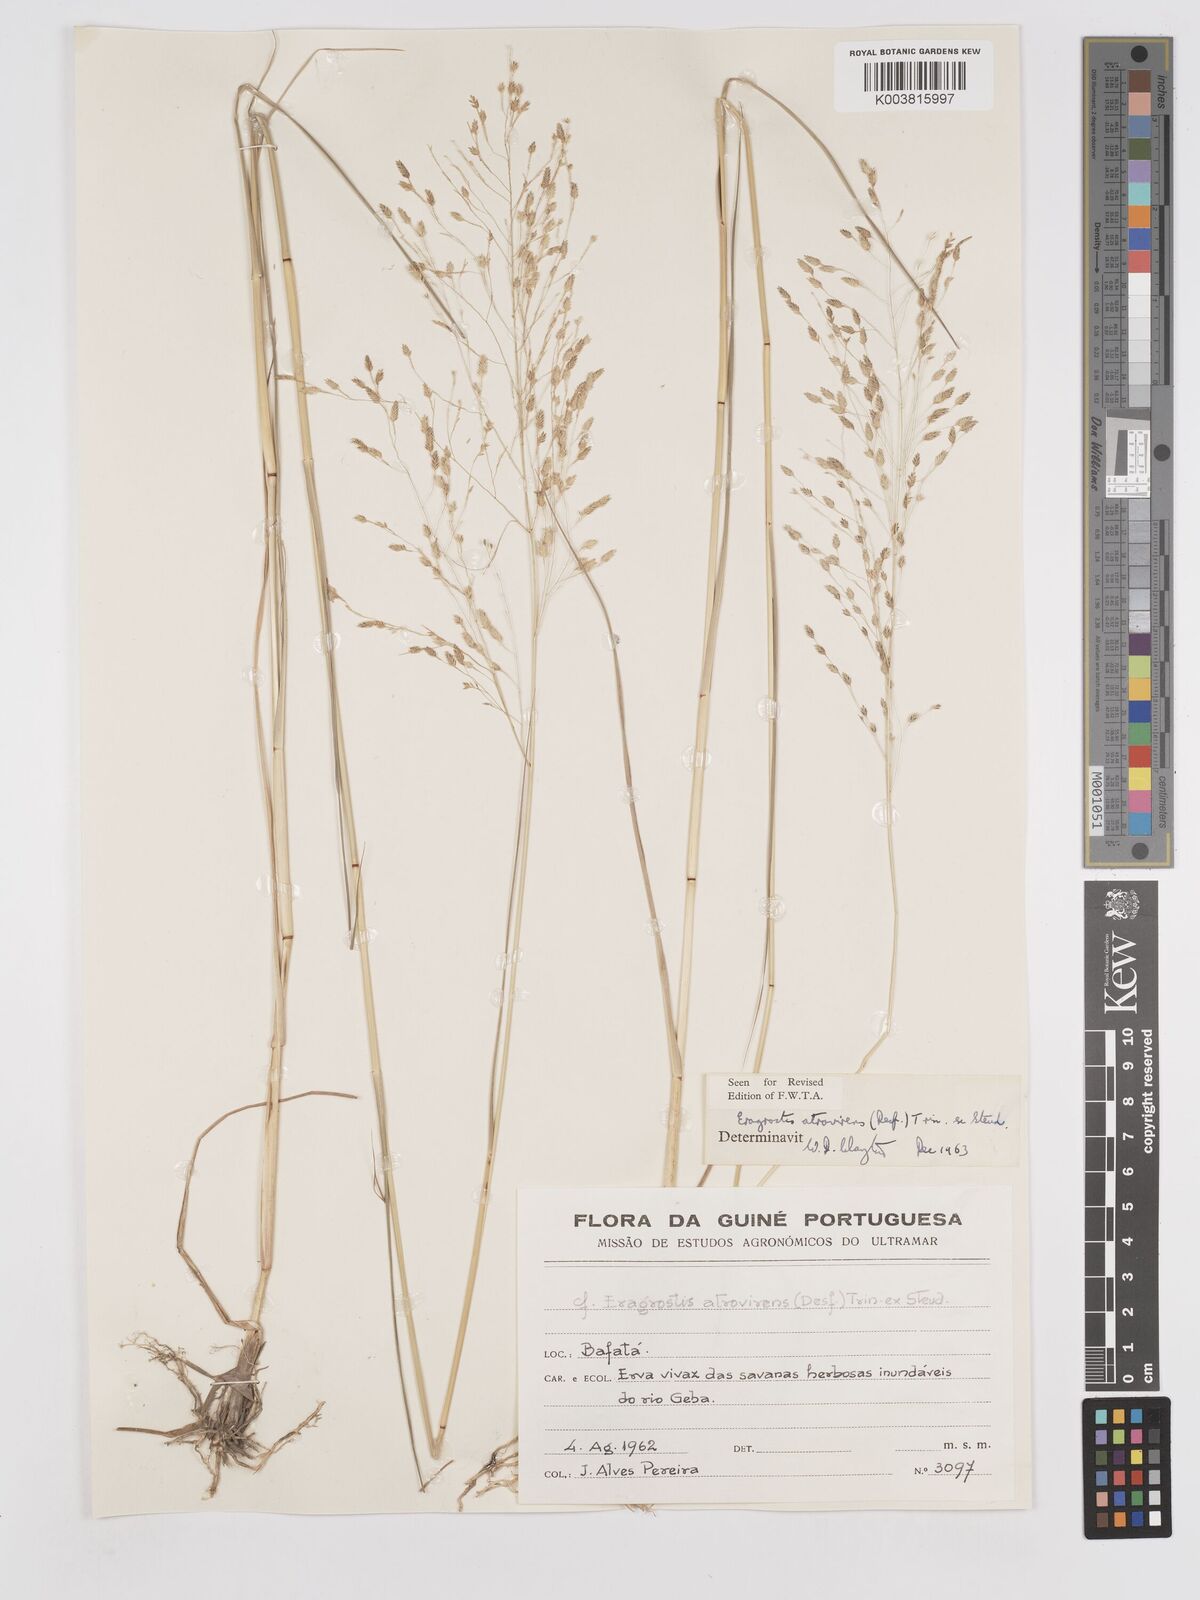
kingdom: Plantae
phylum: Tracheophyta
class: Liliopsida
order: Poales
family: Poaceae
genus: Eragrostis
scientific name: Eragrostis atrovirens
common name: Thalia lovegrass
